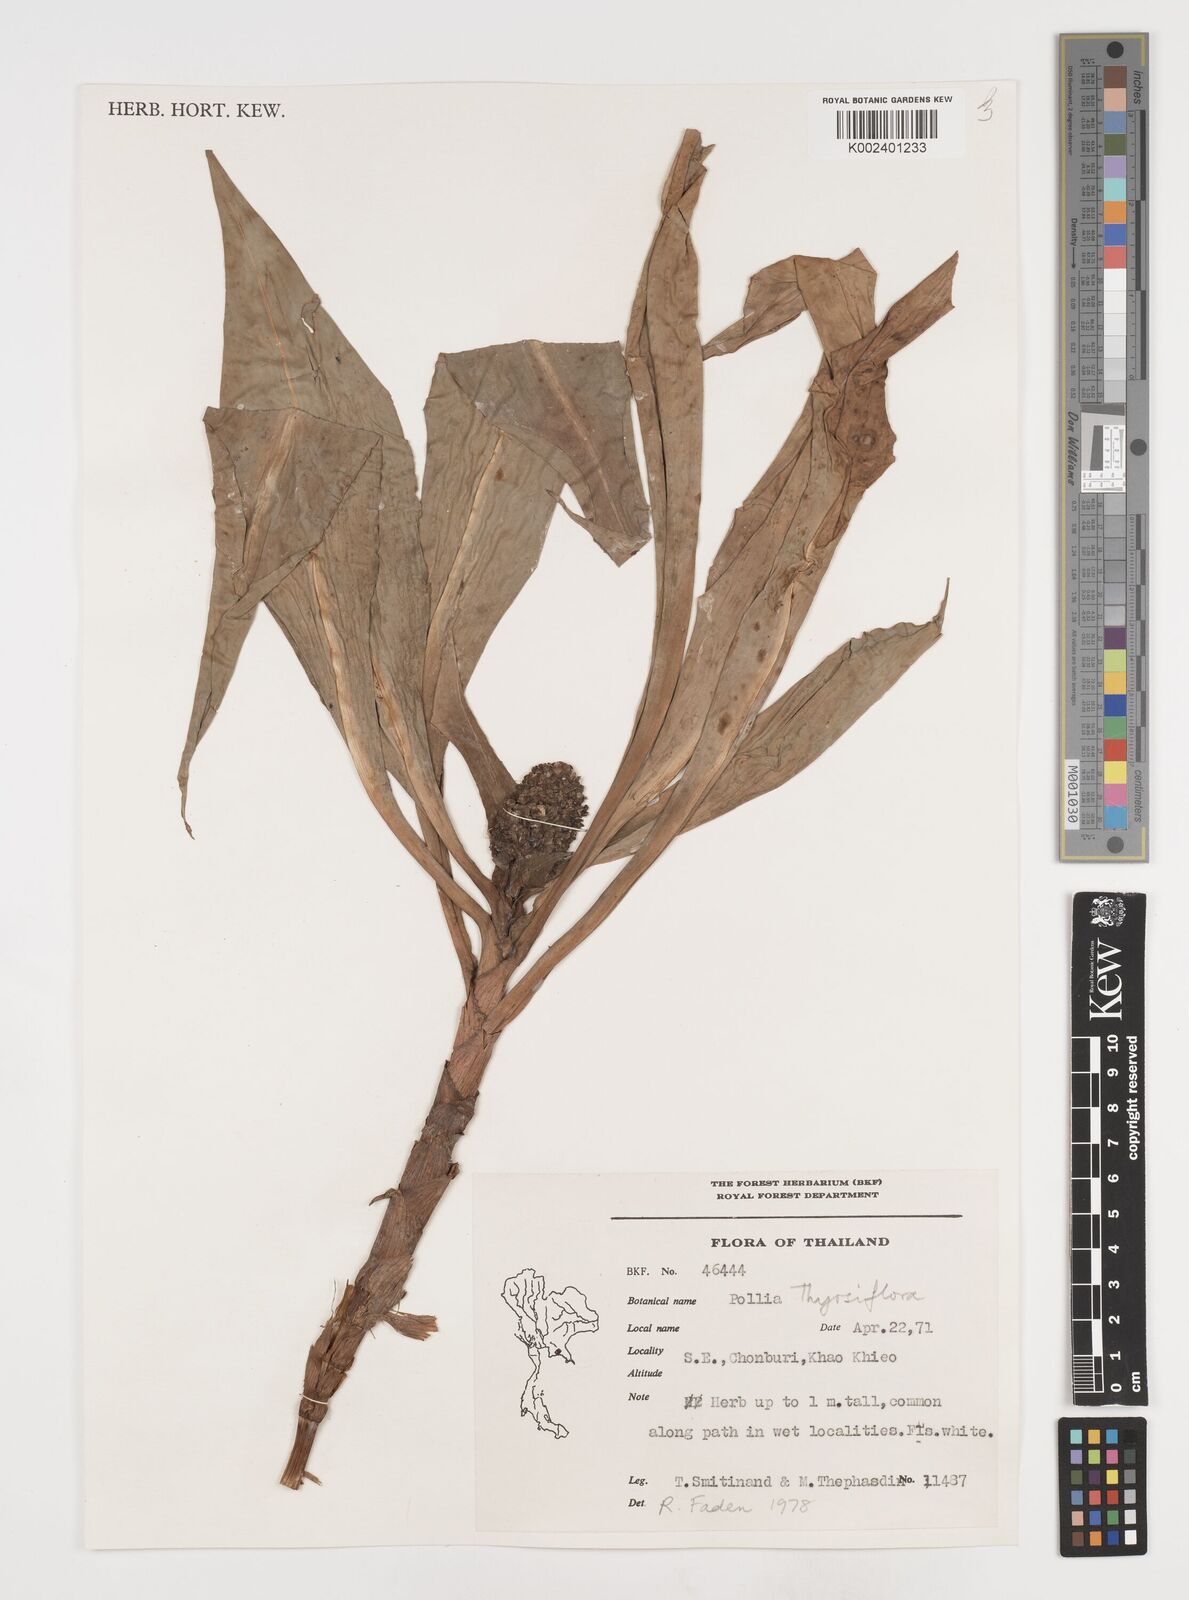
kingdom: Plantae
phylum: Tracheophyta
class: Liliopsida
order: Commelinales
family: Commelinaceae
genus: Pollia
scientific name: Pollia thyrsiflora
